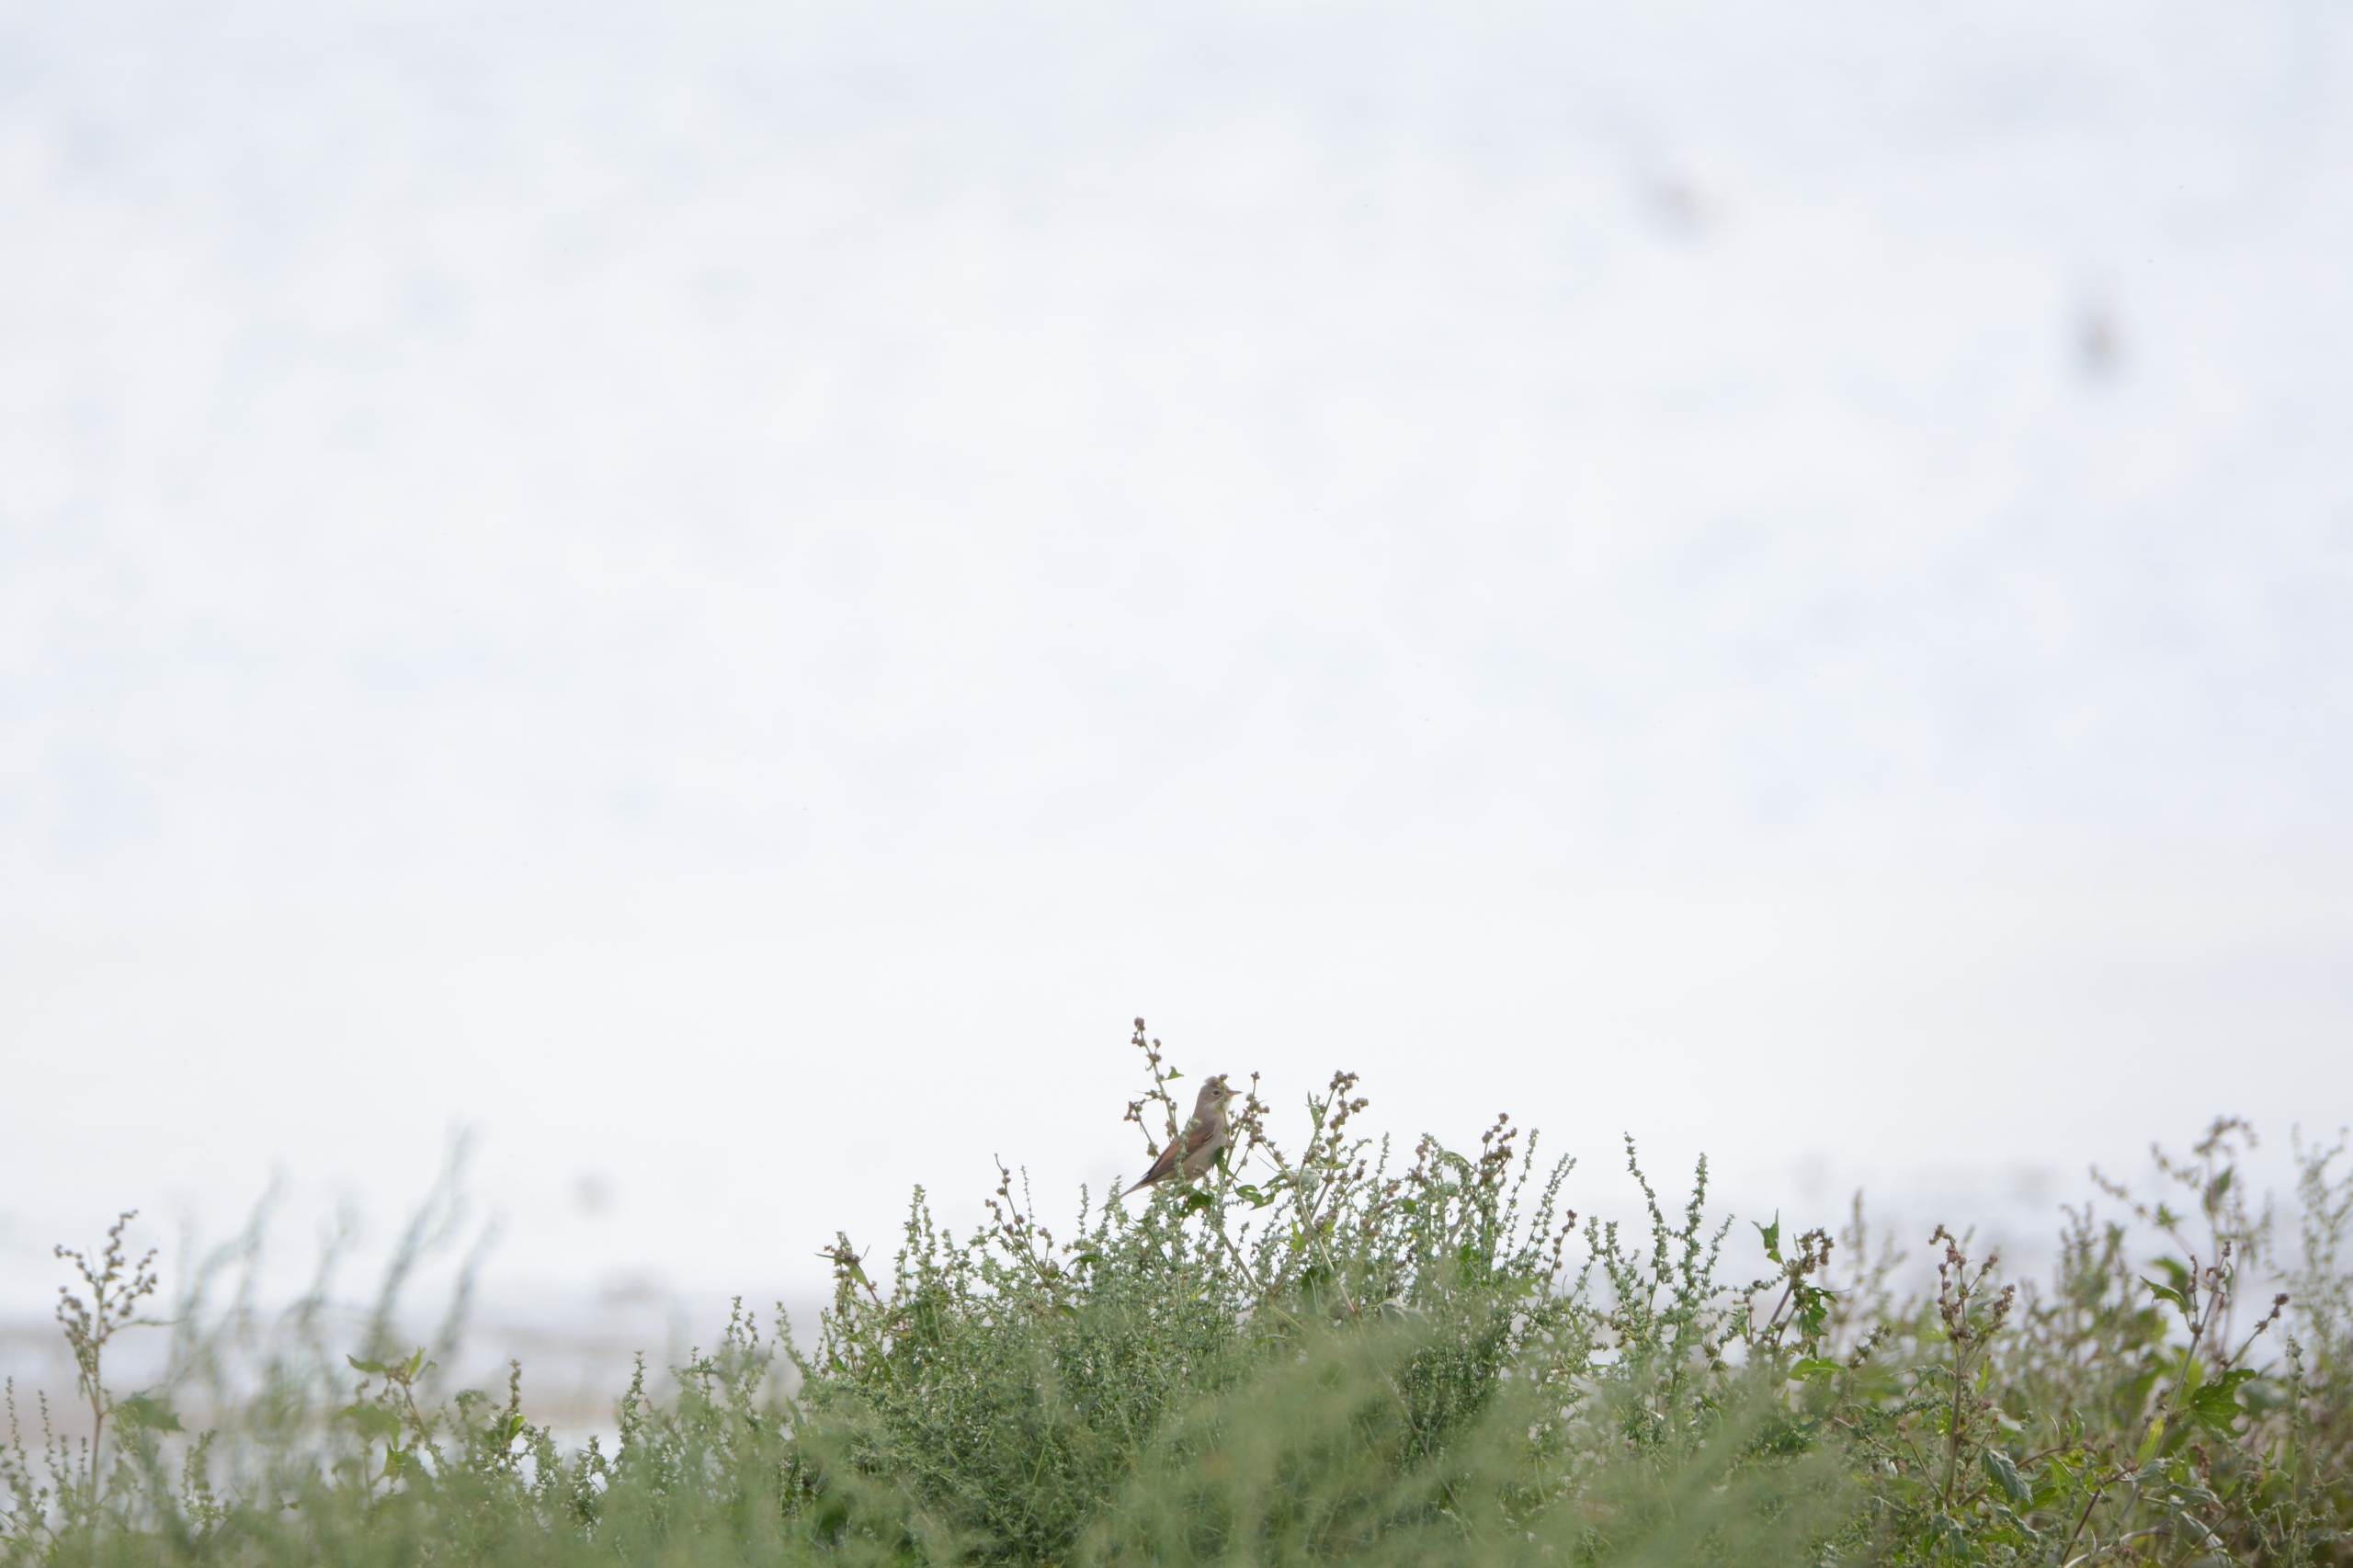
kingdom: Animalia
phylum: Chordata
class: Aves
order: Passeriformes
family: Sylviidae
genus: Sylvia
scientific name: Sylvia communis
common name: Tornsanger
